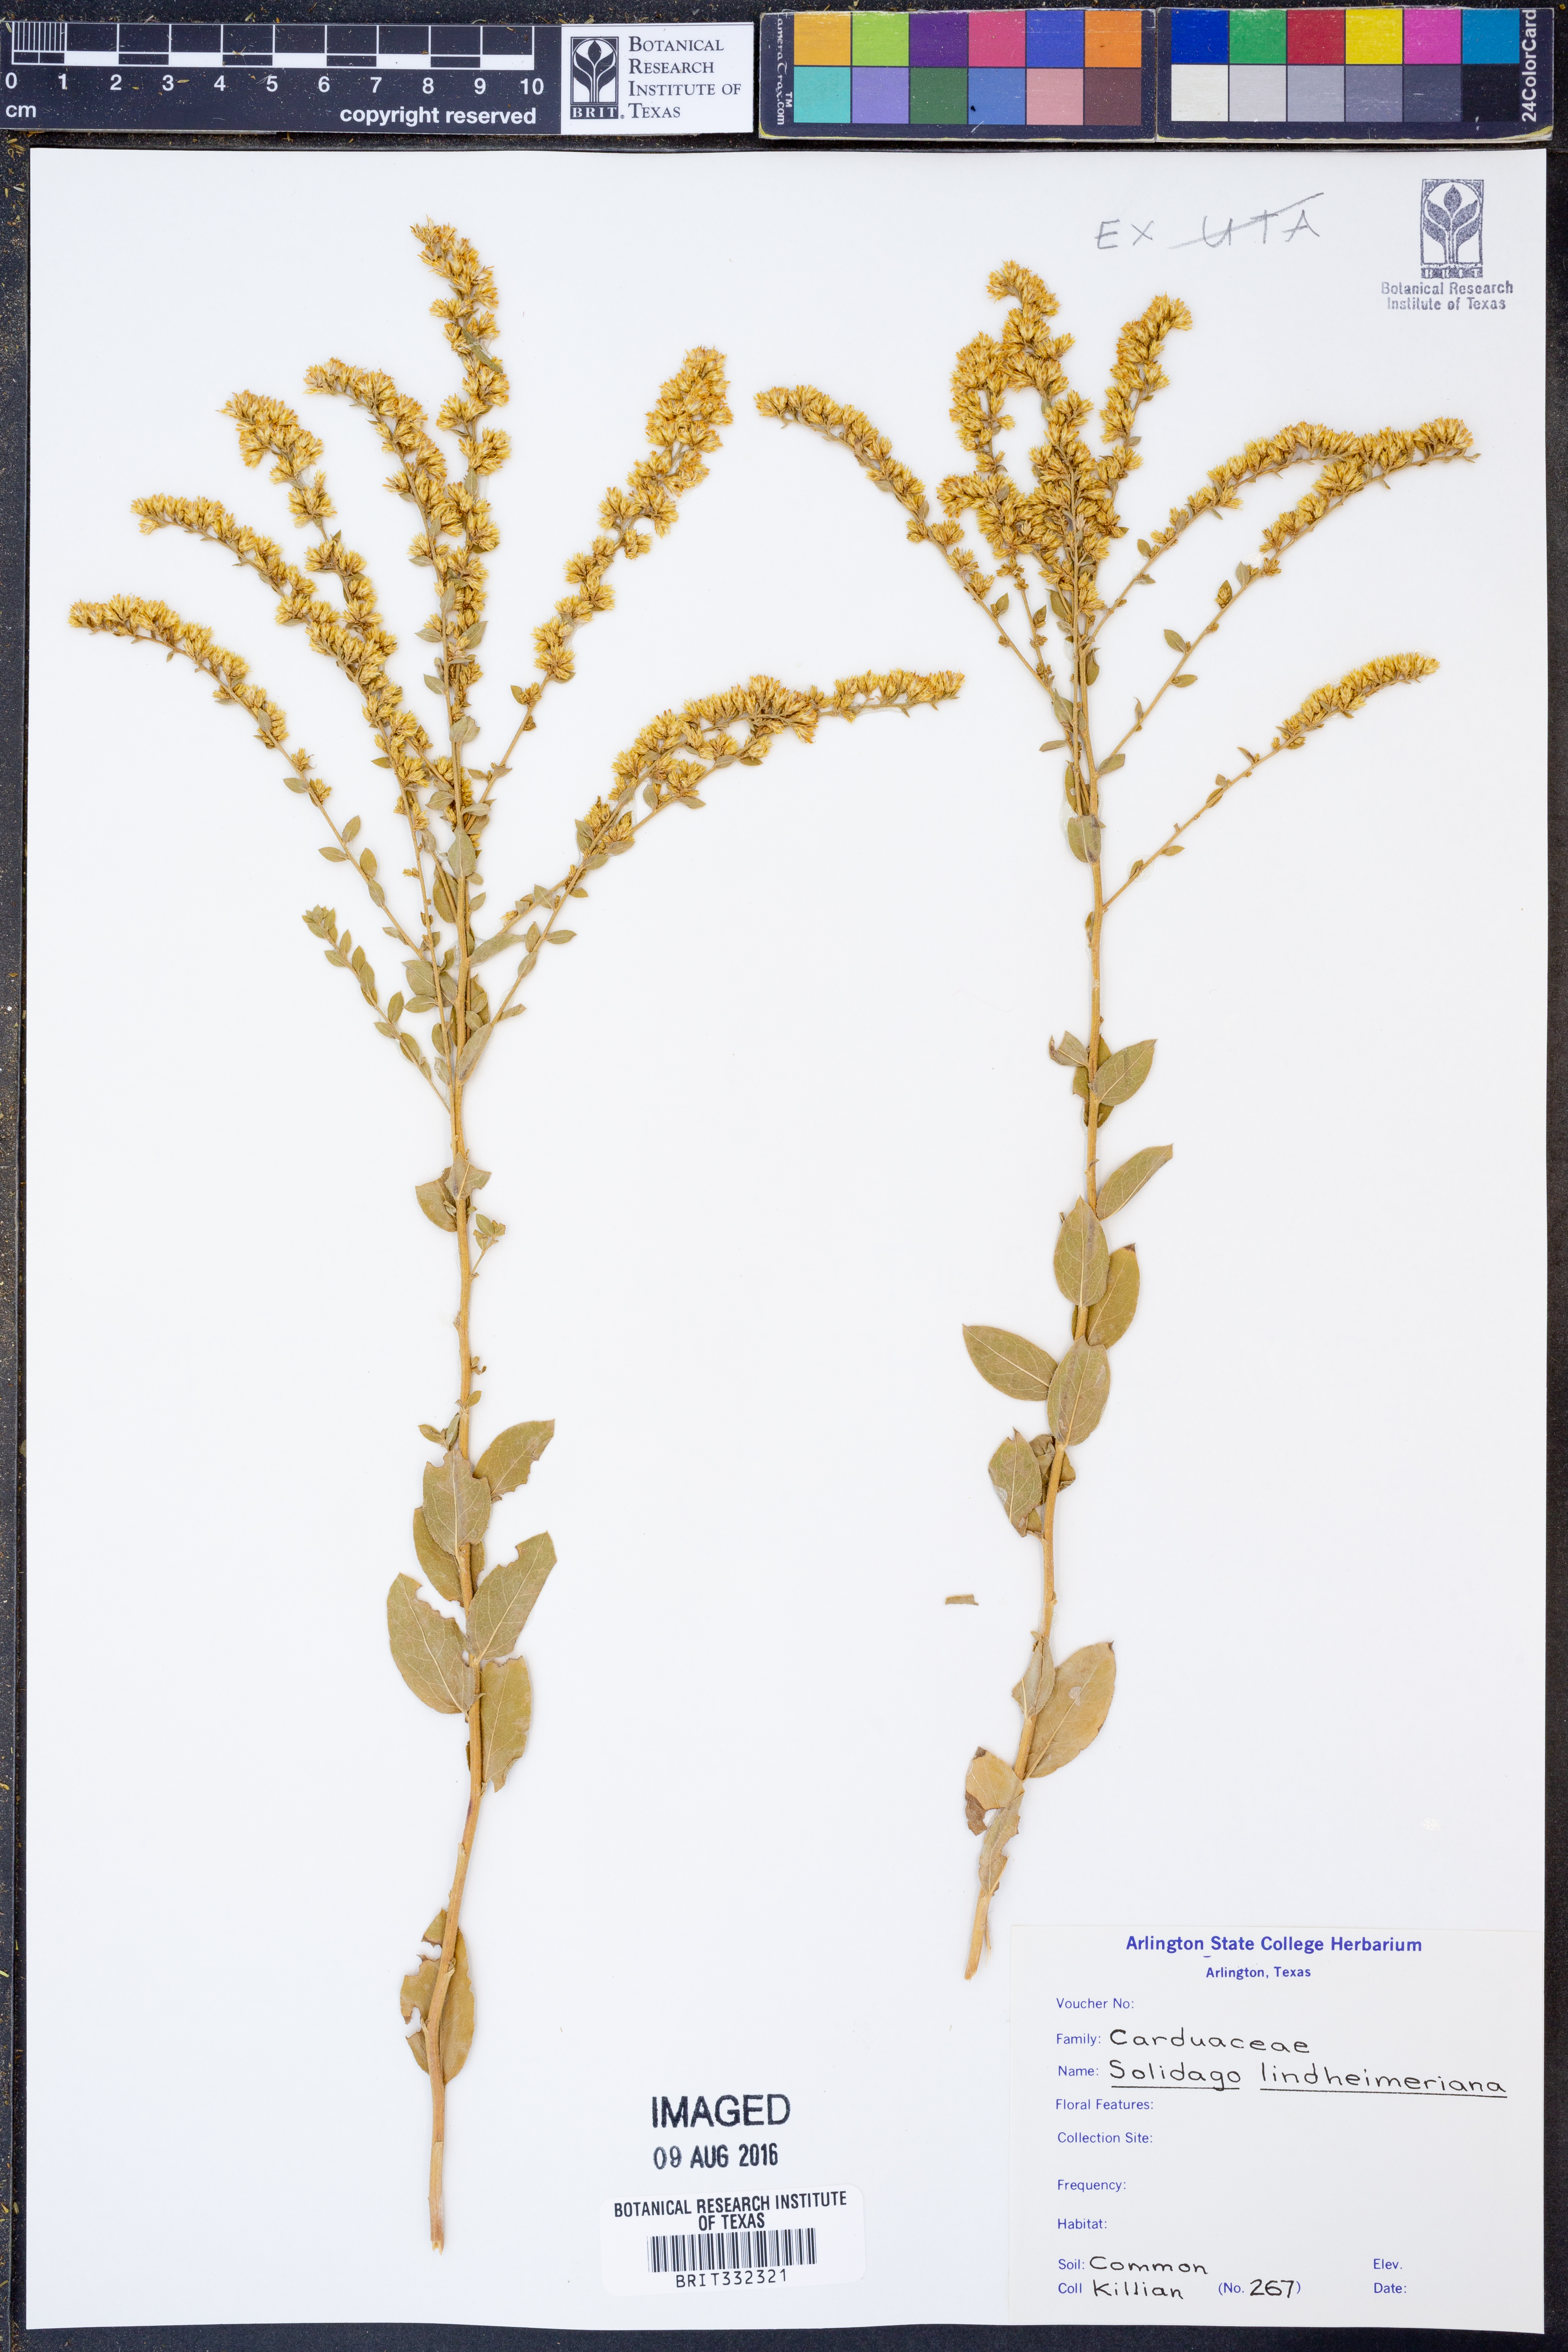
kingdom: Plantae
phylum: Tracheophyta
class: Magnoliopsida
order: Asterales
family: Asteraceae
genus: Solidago
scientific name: Solidago petiolaris
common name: Downy ragged goldenrod
